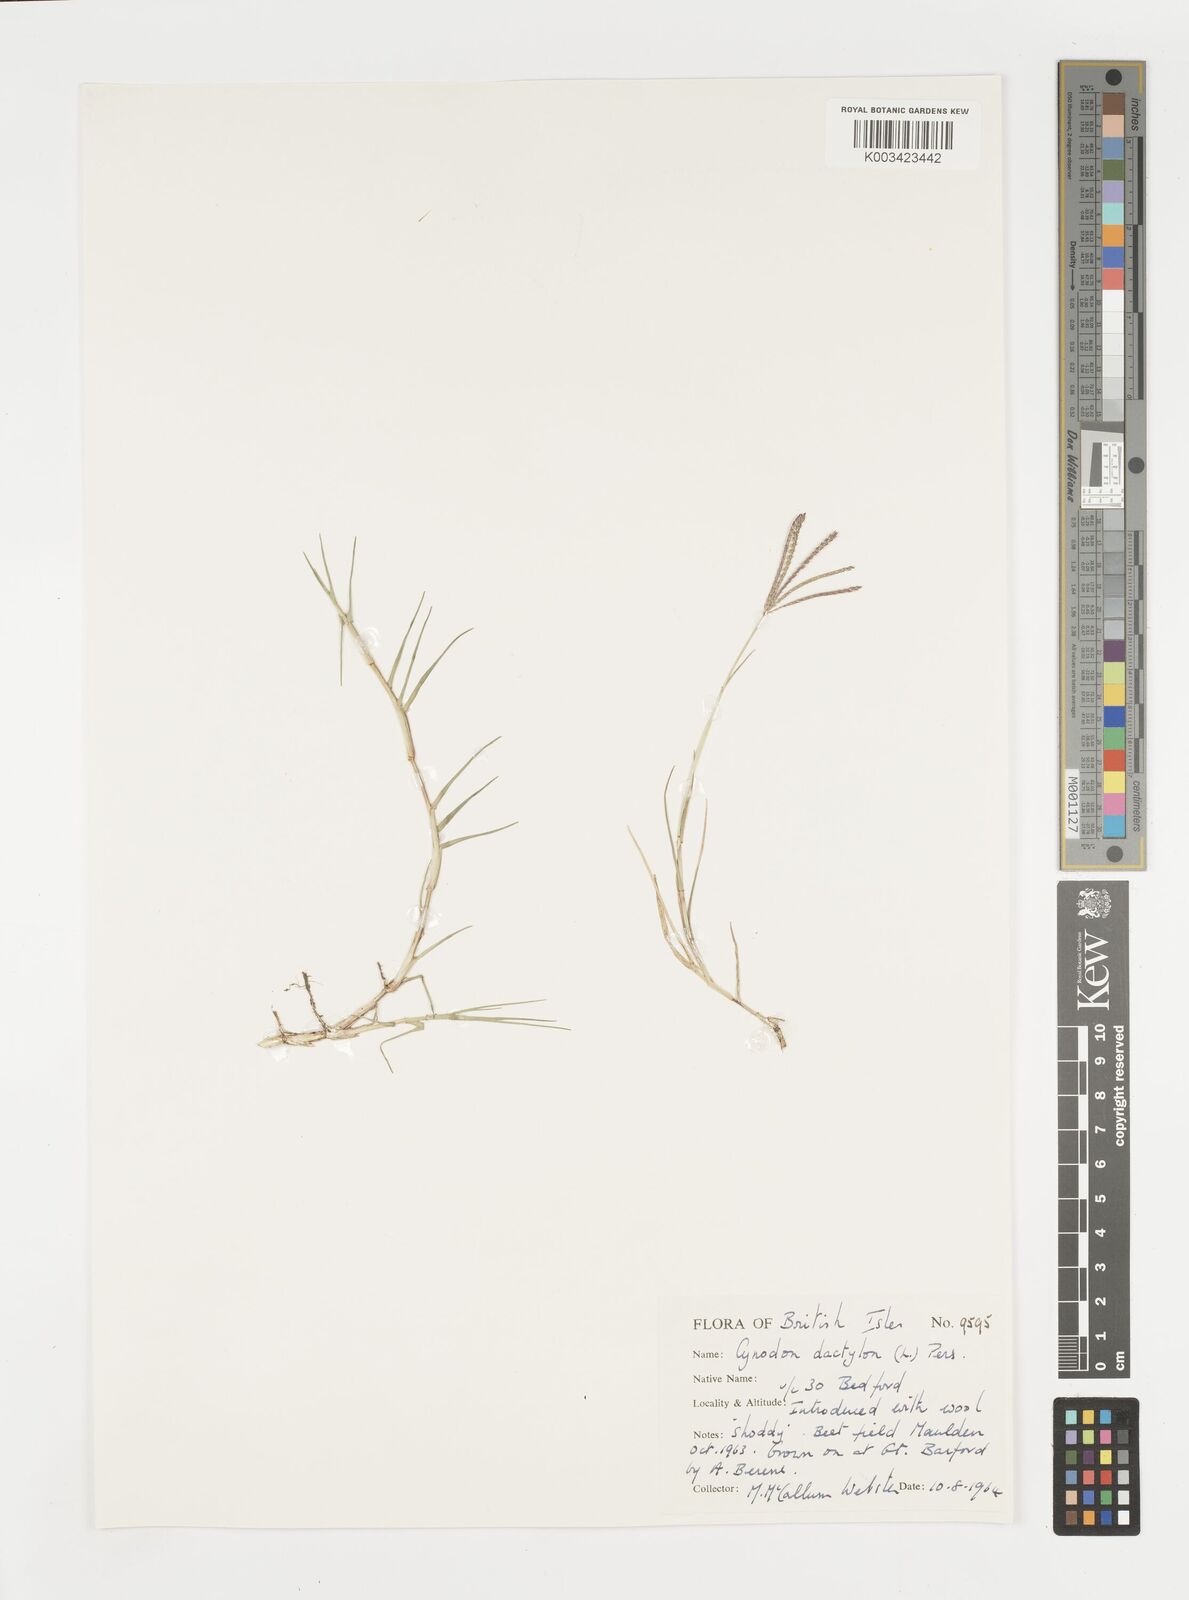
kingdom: Plantae
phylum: Tracheophyta
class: Liliopsida
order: Poales
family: Poaceae
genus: Cynodon
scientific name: Cynodon dactylon
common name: Bermuda grass
